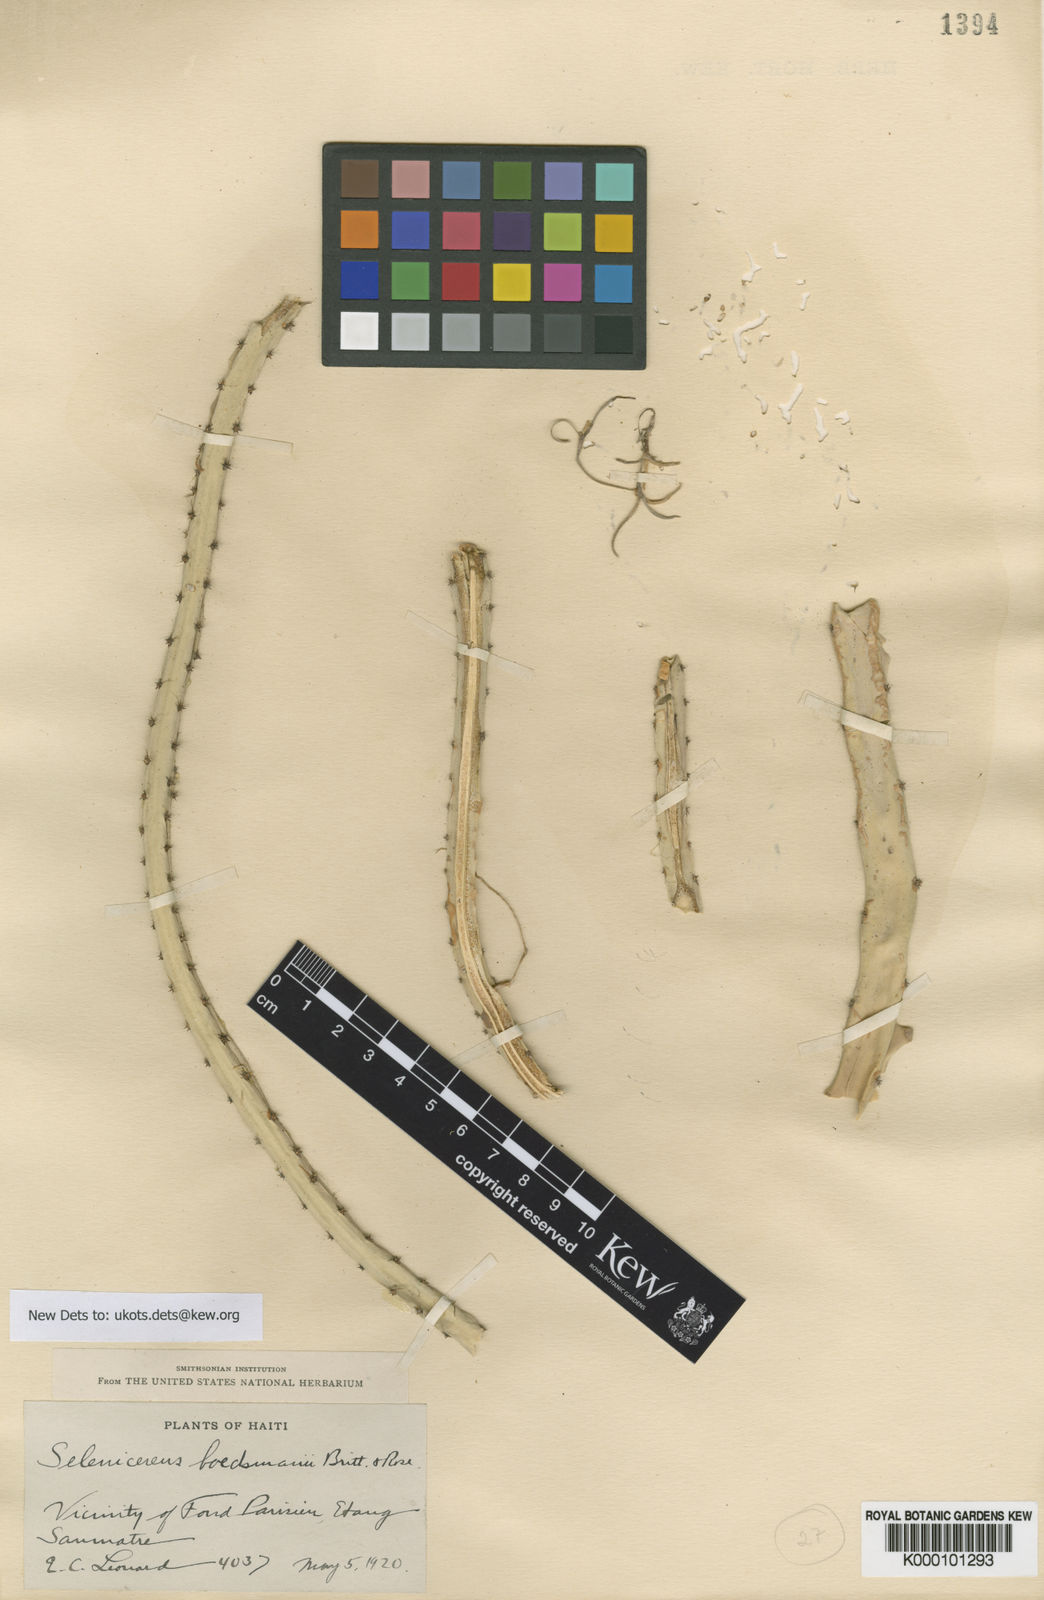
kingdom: Plantae
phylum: Tracheophyta
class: Magnoliopsida
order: Caryophyllales
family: Cactaceae
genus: Selenicereus
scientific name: Selenicereus pteranthus
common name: Princess of the night
